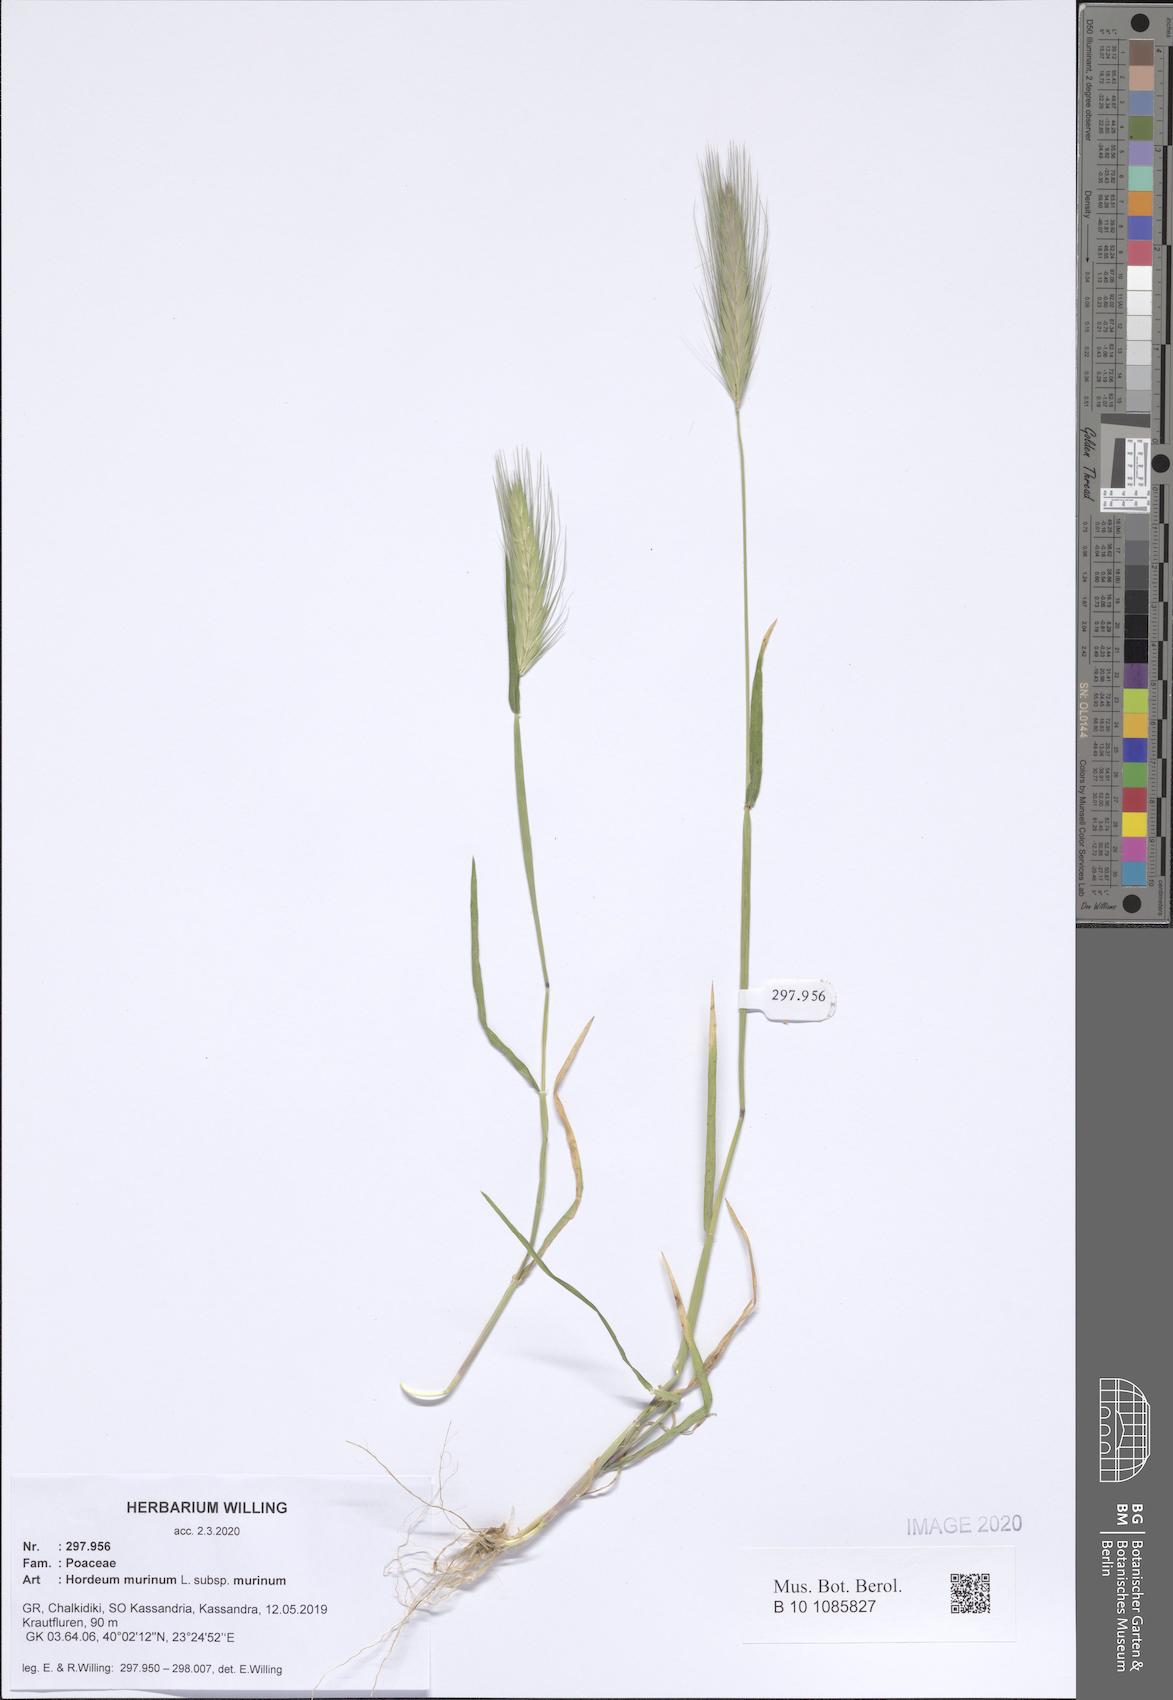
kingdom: Plantae
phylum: Tracheophyta
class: Liliopsida
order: Poales
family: Poaceae
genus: Hordeum
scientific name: Hordeum murinum
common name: Wall barley
